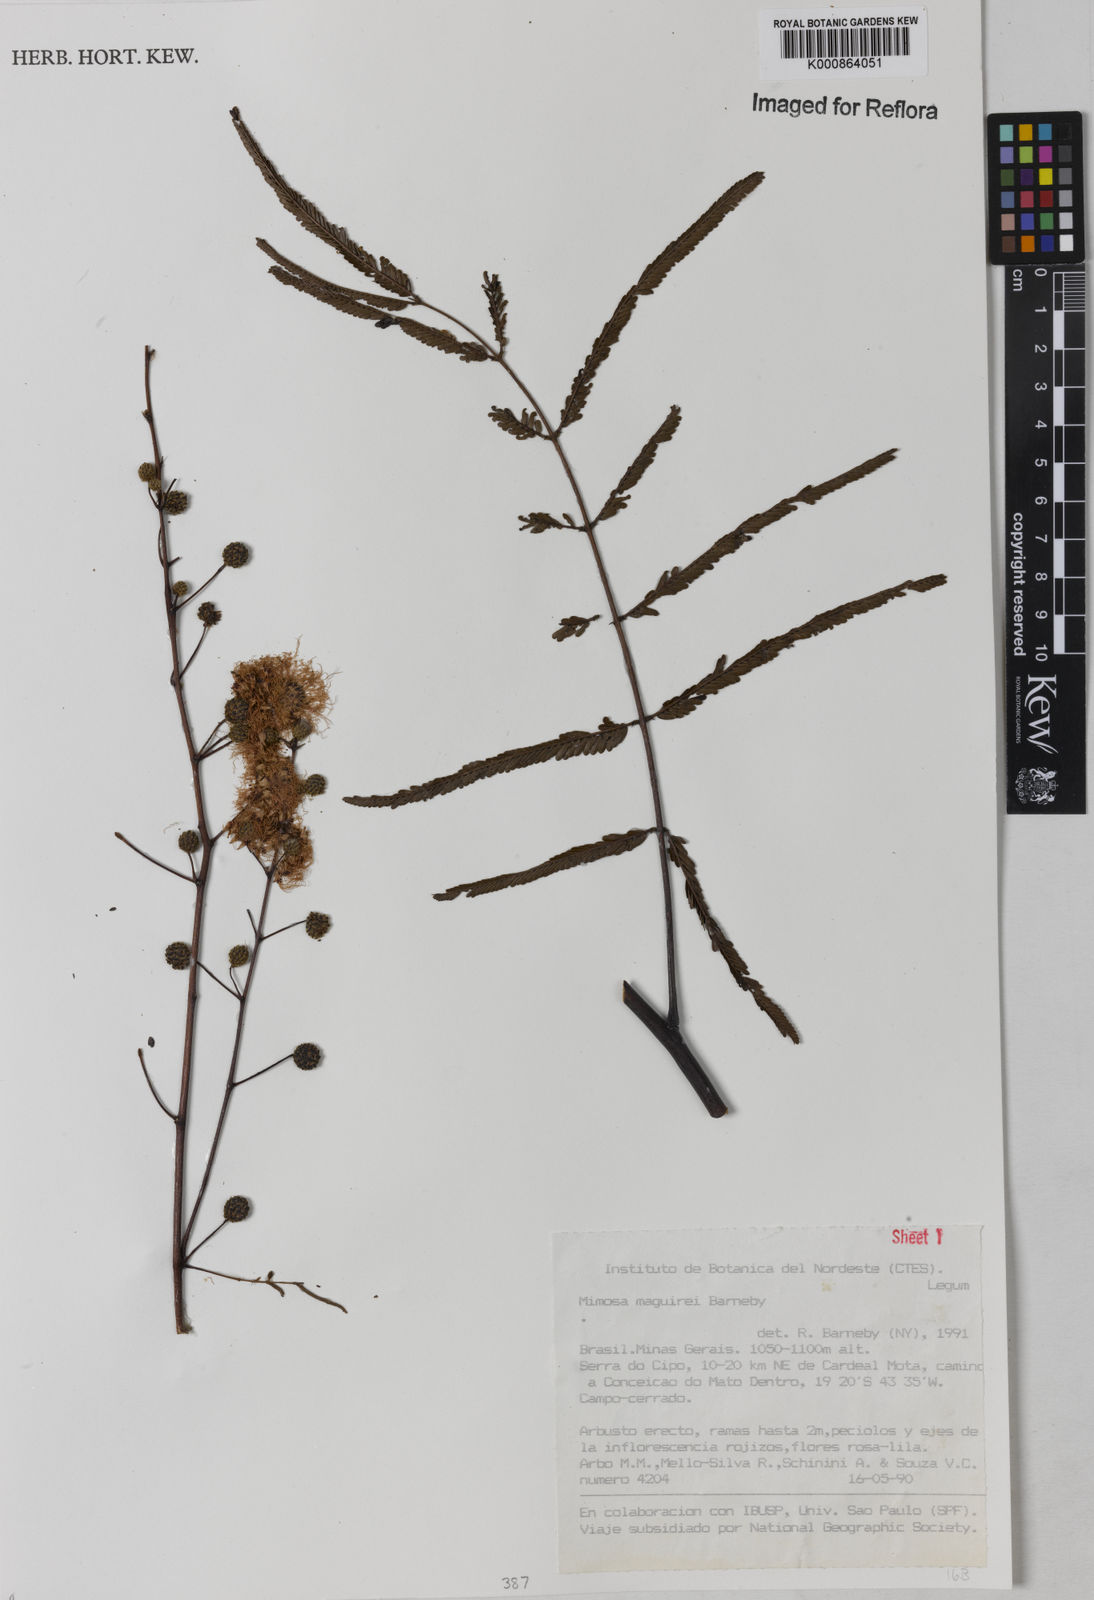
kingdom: Plantae
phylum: Tracheophyta
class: Magnoliopsida
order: Fabales
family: Fabaceae
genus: Mimosa
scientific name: Mimosa maguirei
